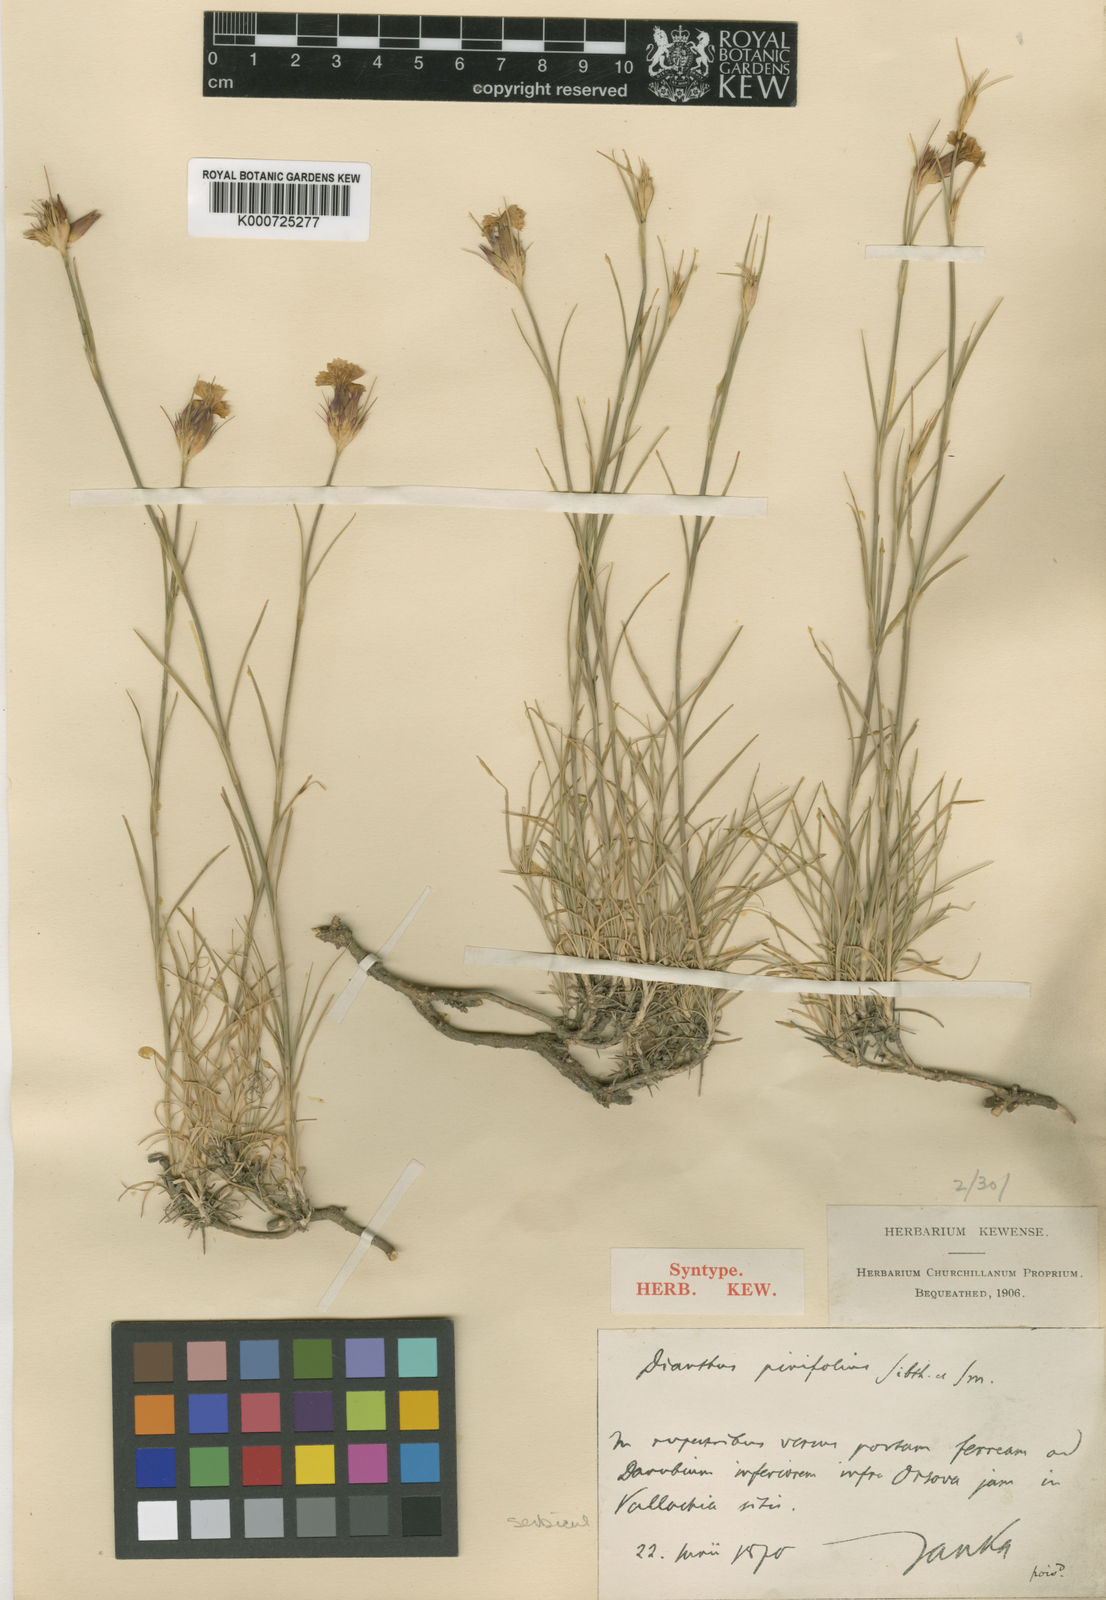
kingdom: Plantae
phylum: Tracheophyta
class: Magnoliopsida
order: Caryophyllales
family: Caryophyllaceae
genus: Dianthus
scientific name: Dianthus pinifolius
